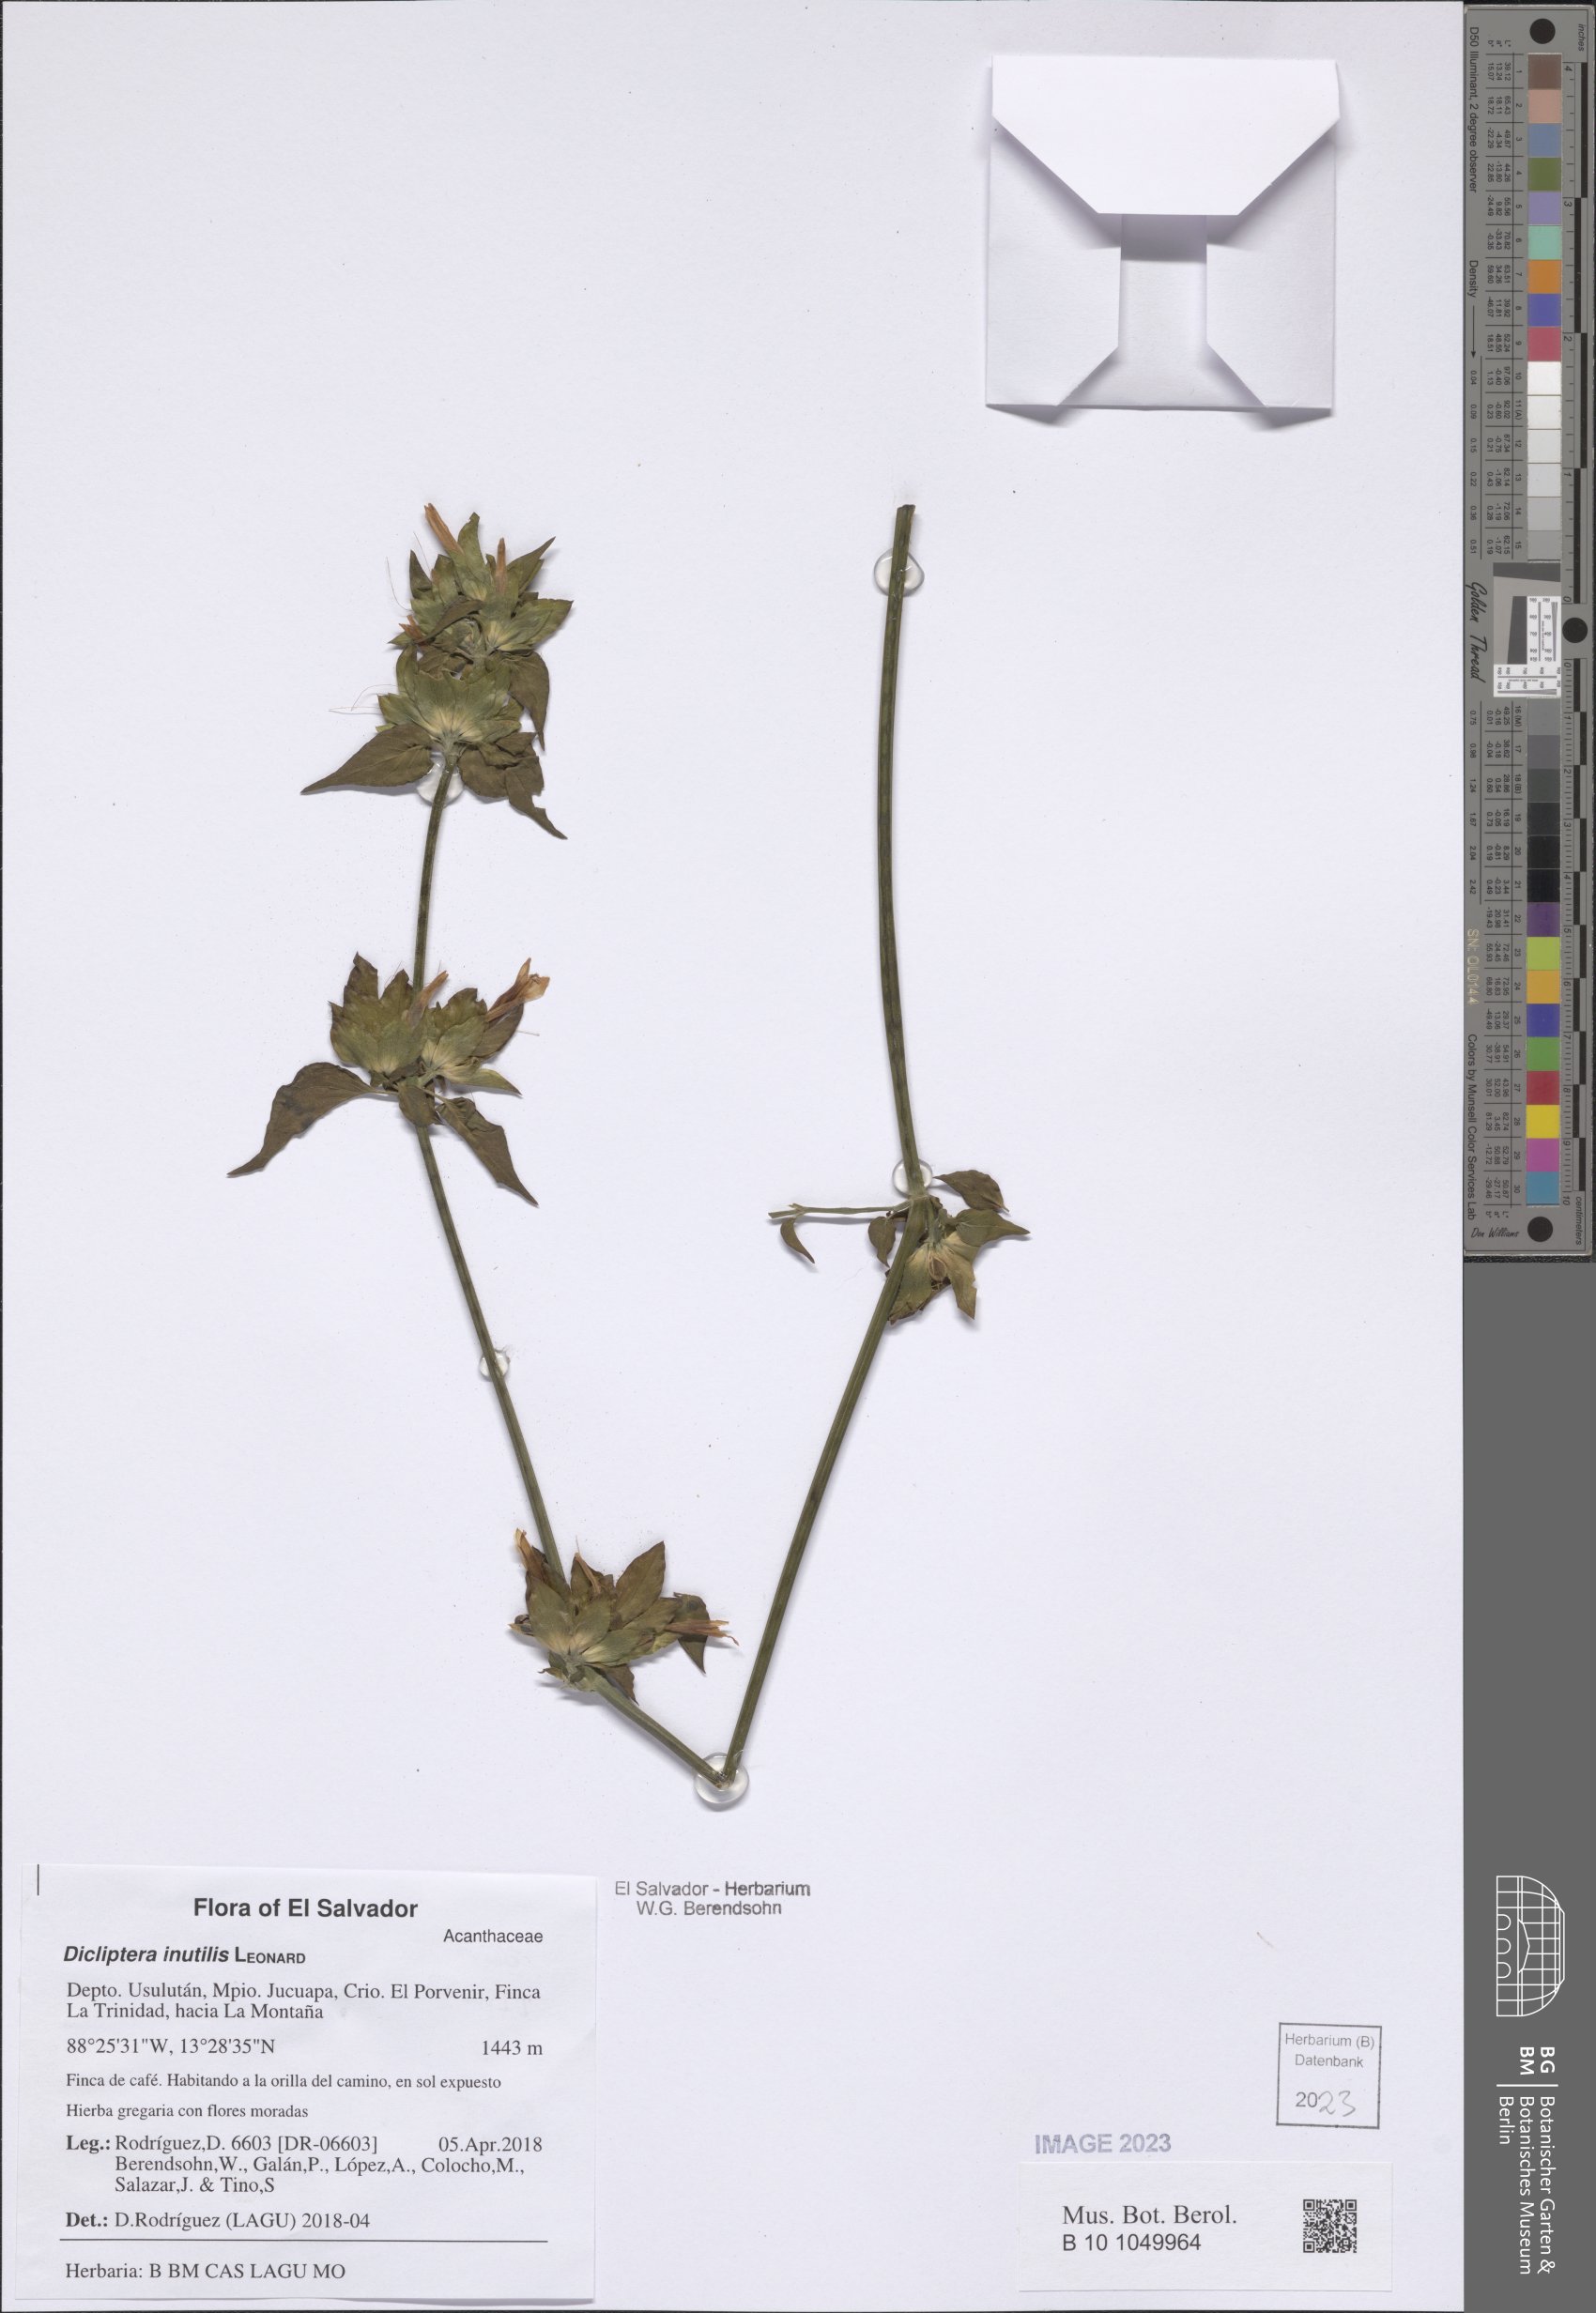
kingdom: Plantae
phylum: Tracheophyta
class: Magnoliopsida
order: Lamiales
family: Acanthaceae
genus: Dicliptera
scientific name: Dicliptera inutilis
